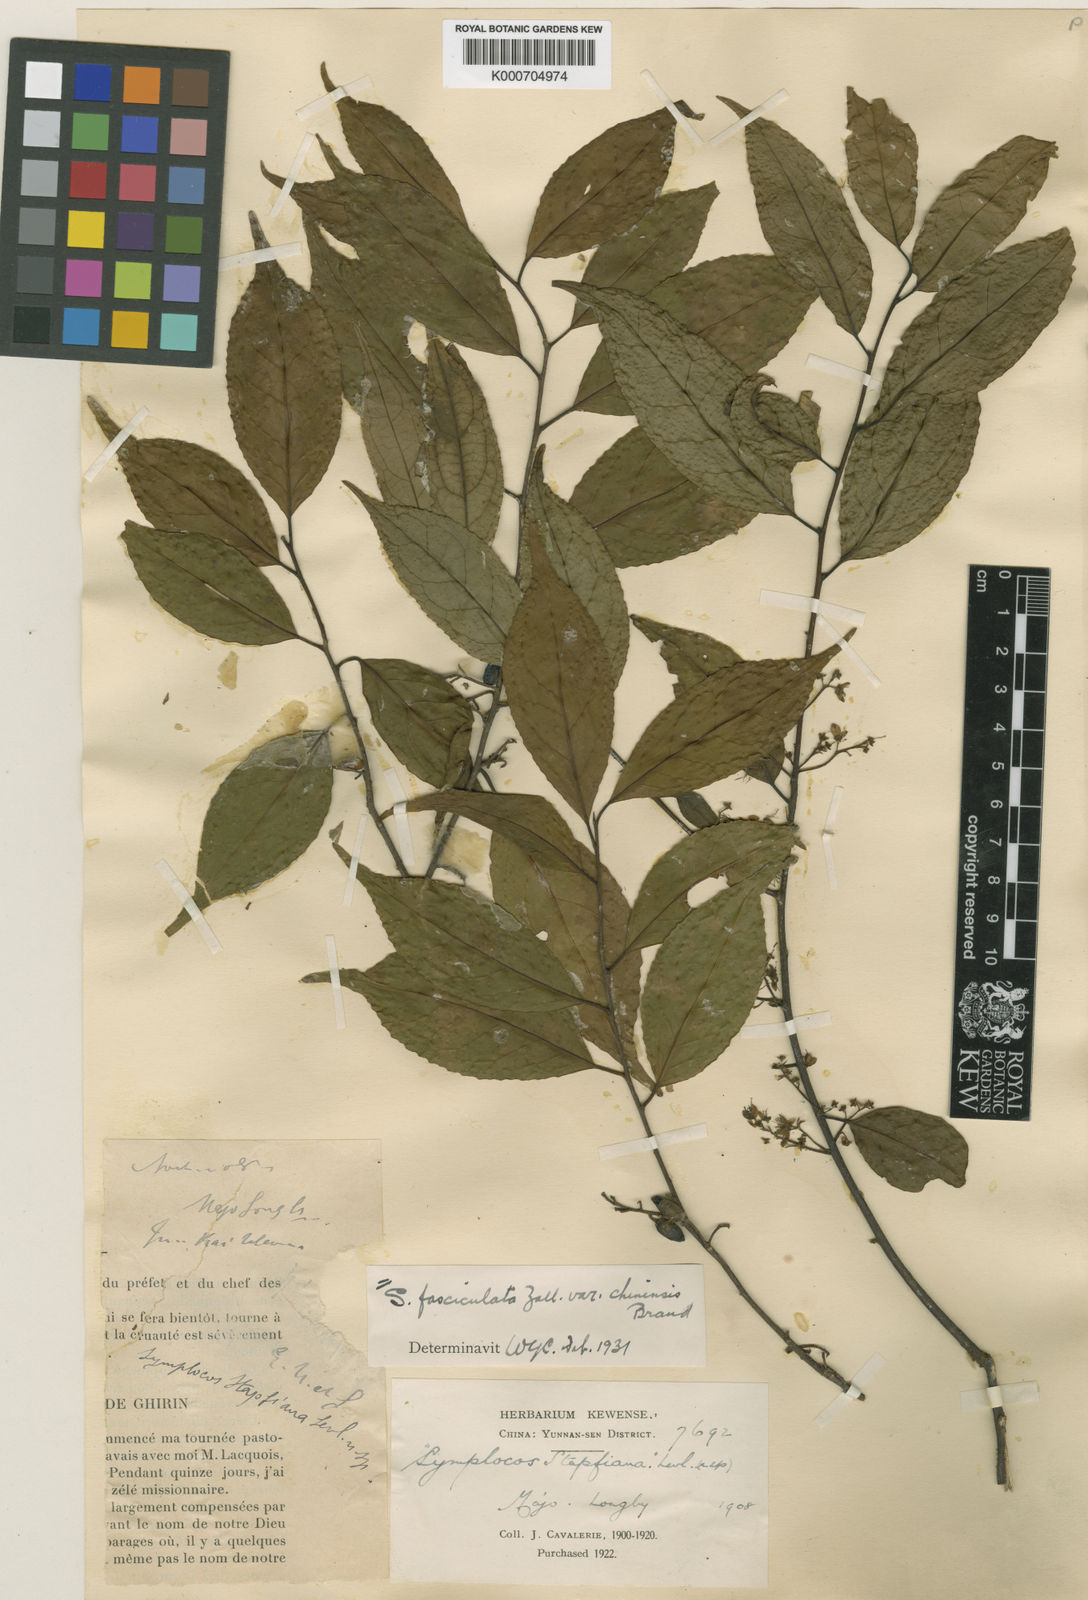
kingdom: Plantae
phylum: Tracheophyta
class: Magnoliopsida
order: Ericales
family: Symplocaceae
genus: Symplocos
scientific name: Symplocos
